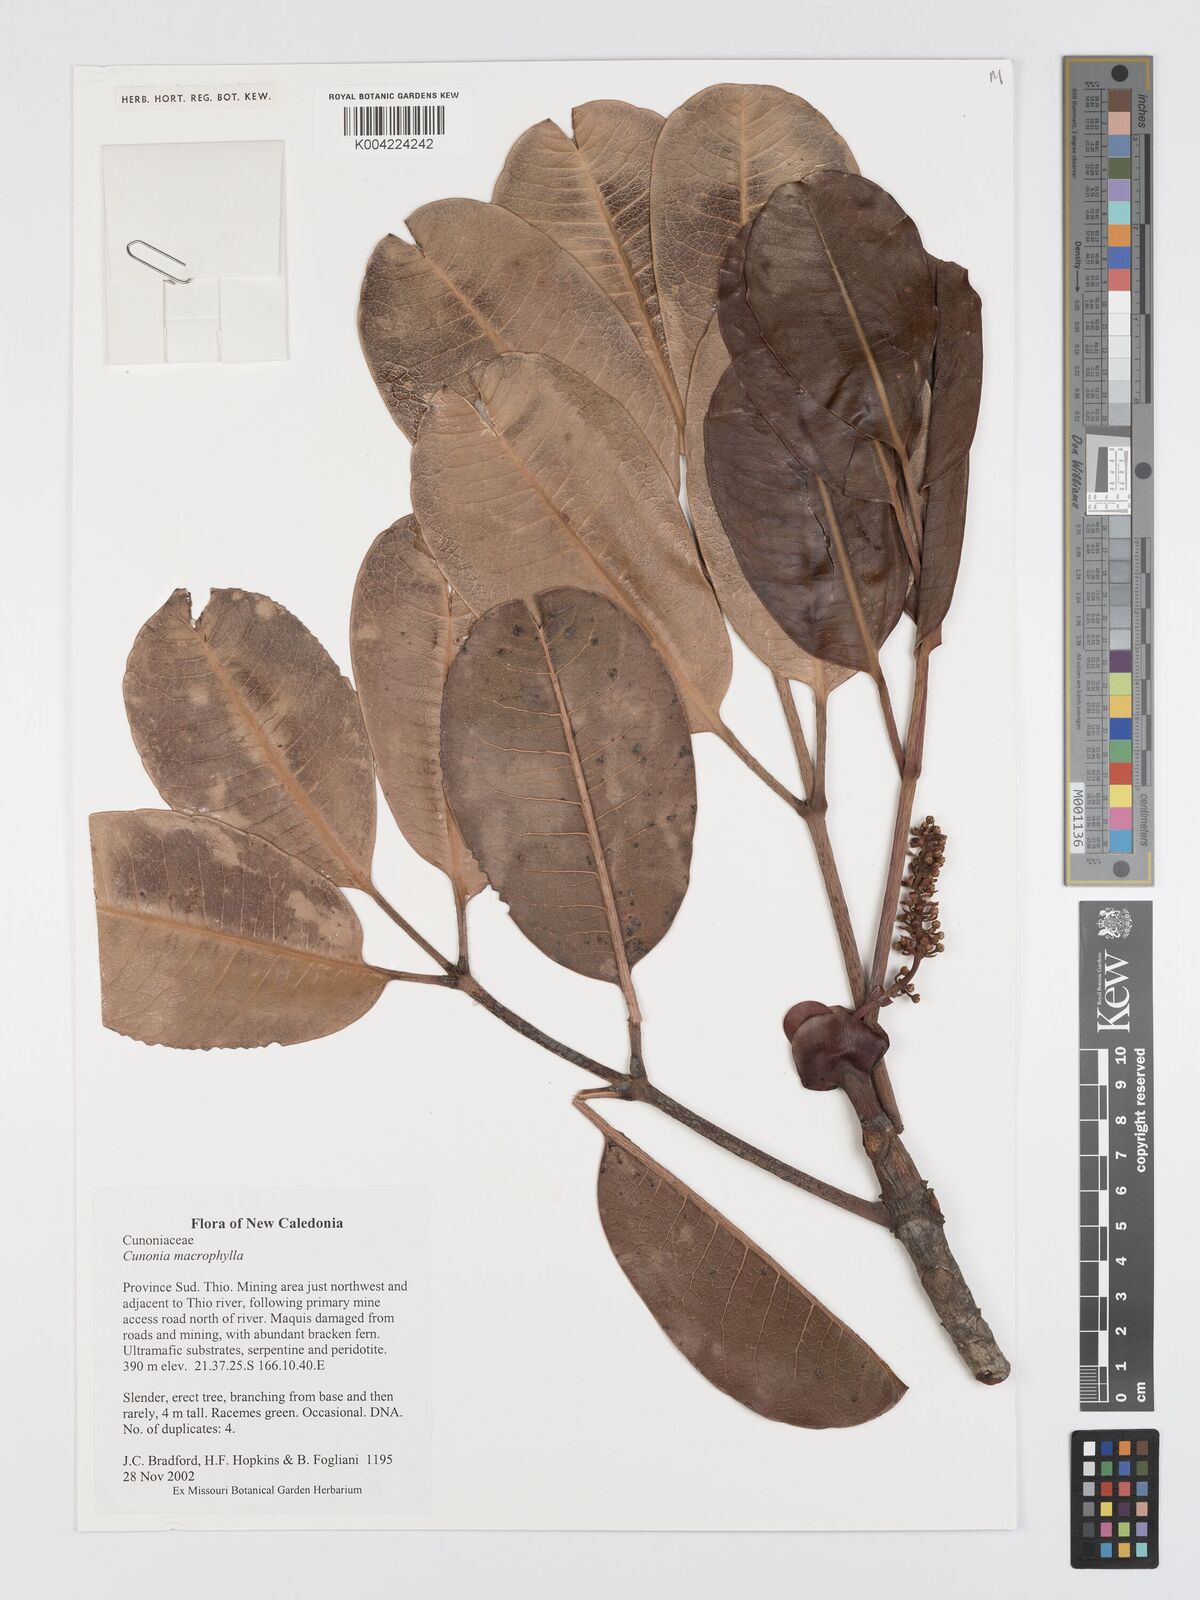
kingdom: Plantae
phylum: Tracheophyta
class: Magnoliopsida
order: Oxalidales
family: Cunoniaceae
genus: Cunonia
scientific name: Cunonia macrophylla
